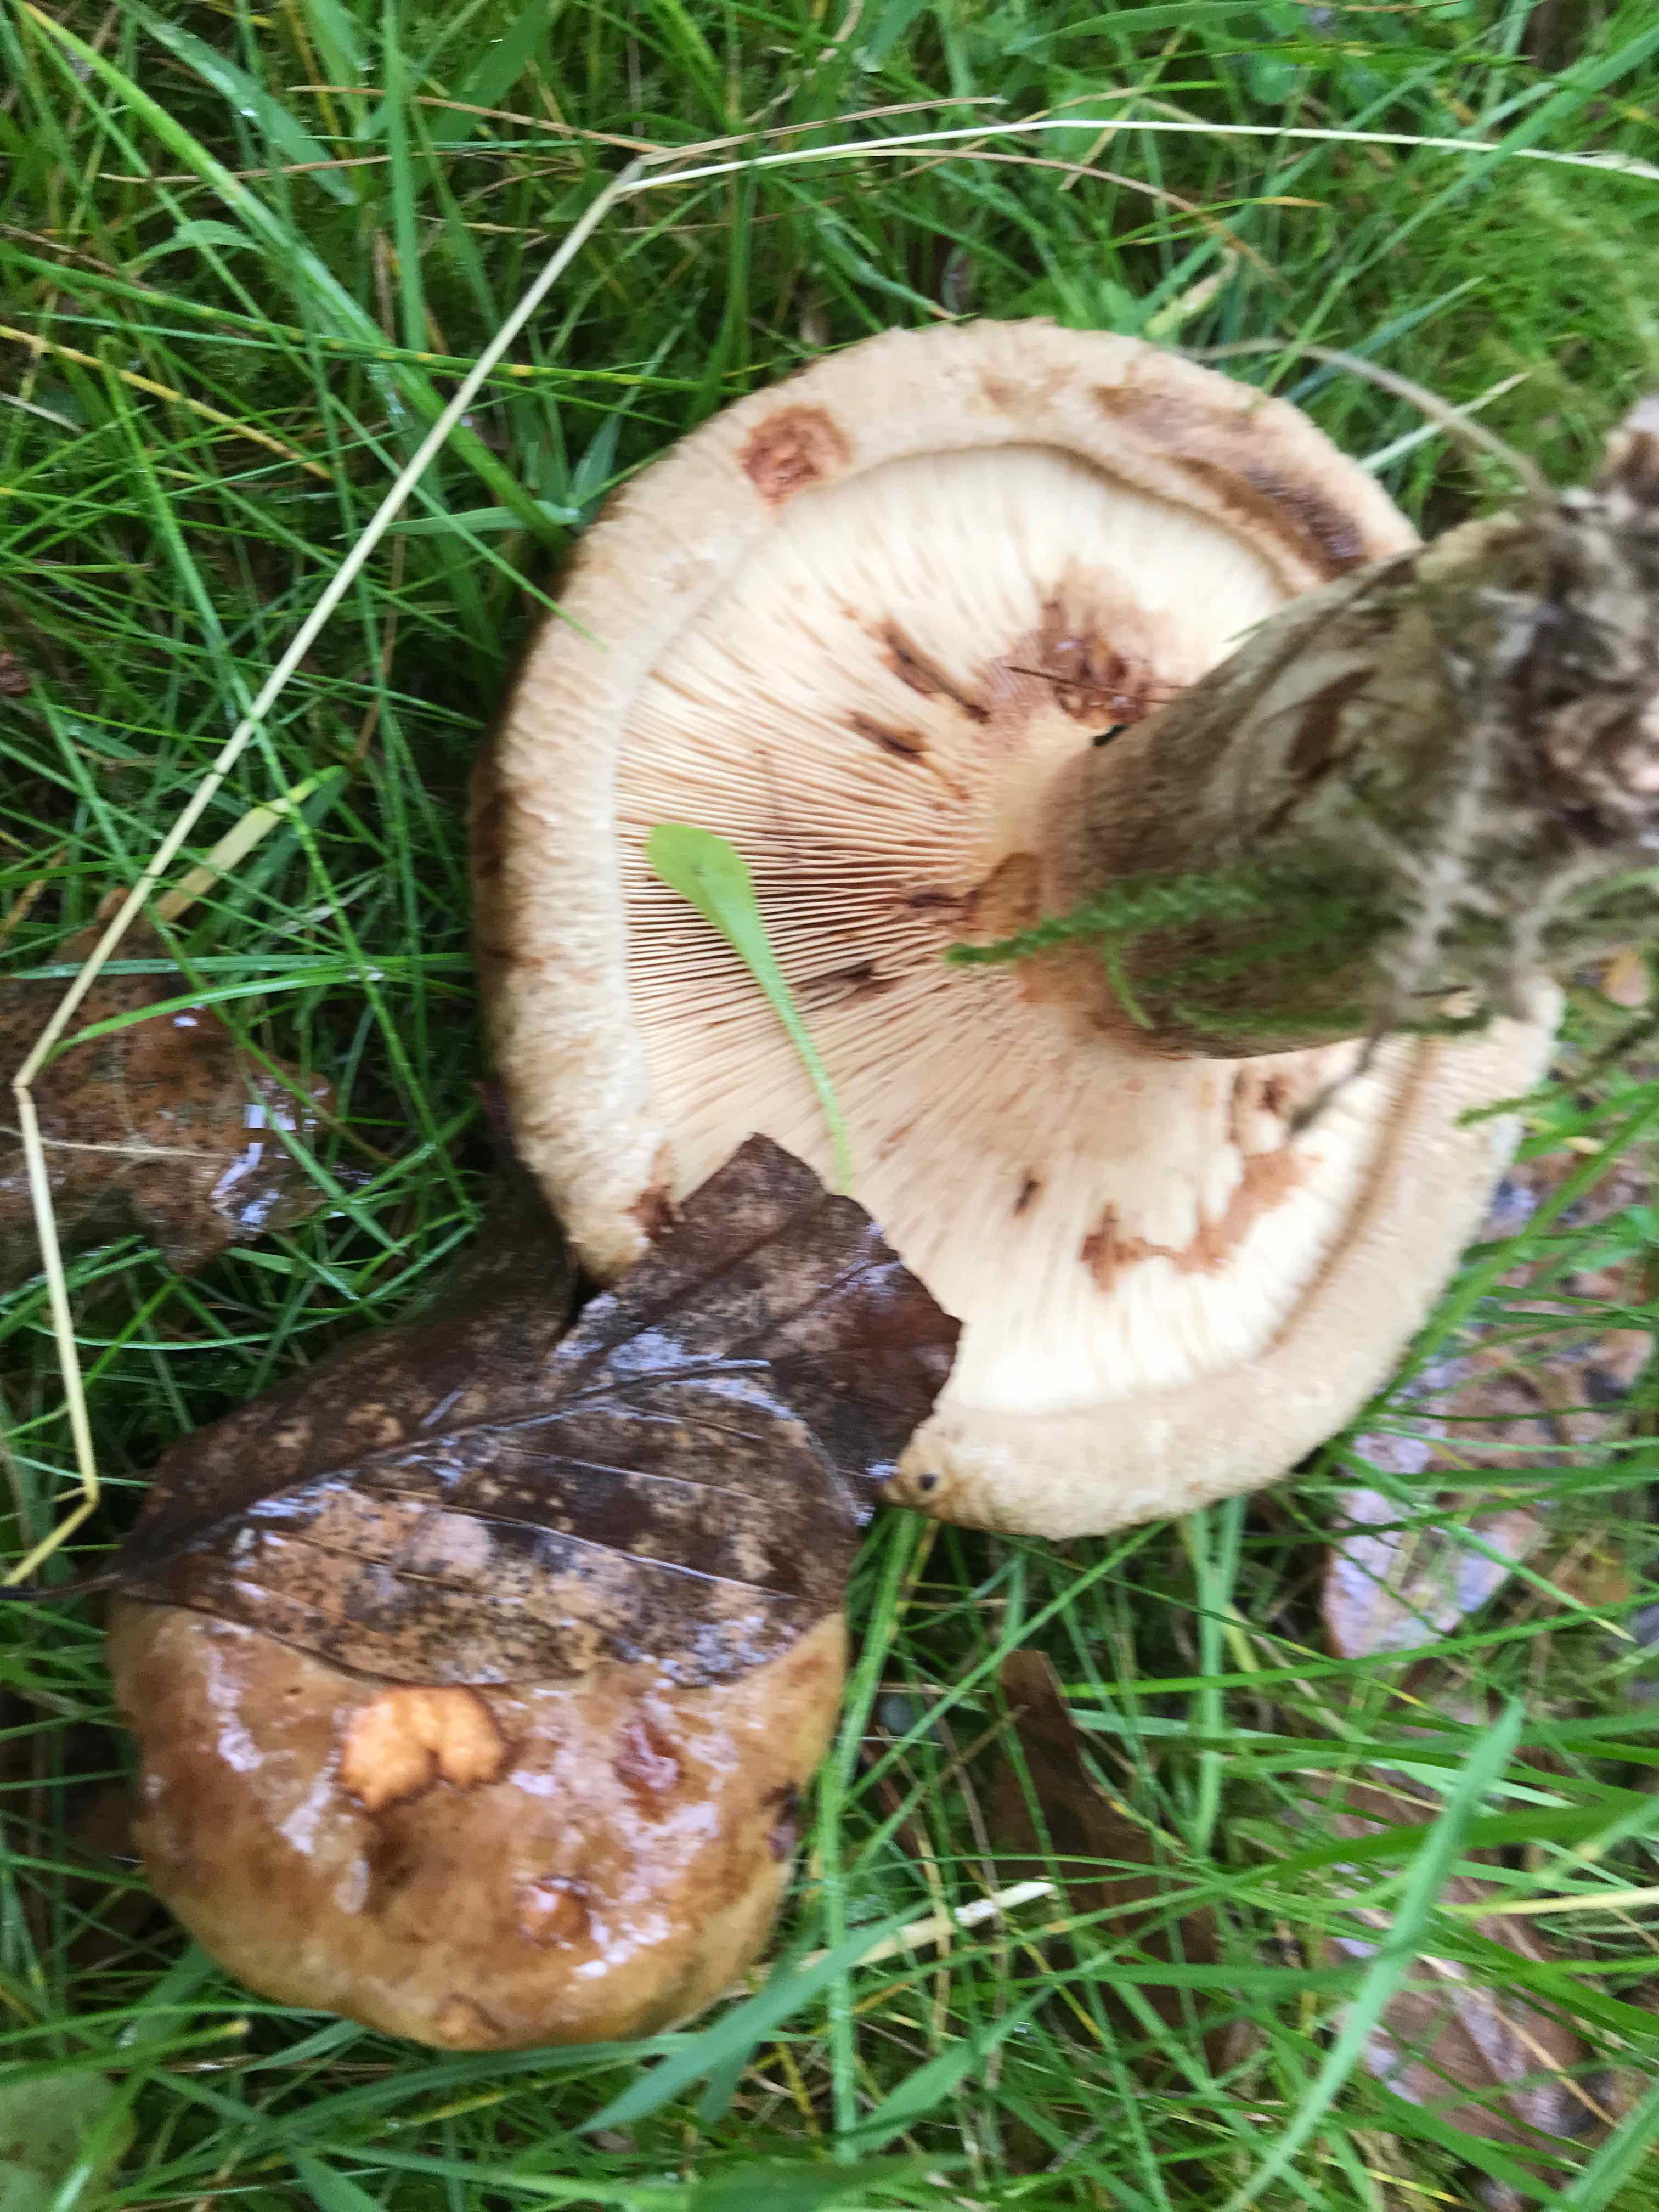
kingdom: Fungi
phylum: Basidiomycota
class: Agaricomycetes
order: Boletales
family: Paxillaceae
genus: Paxillus
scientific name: Paxillus
